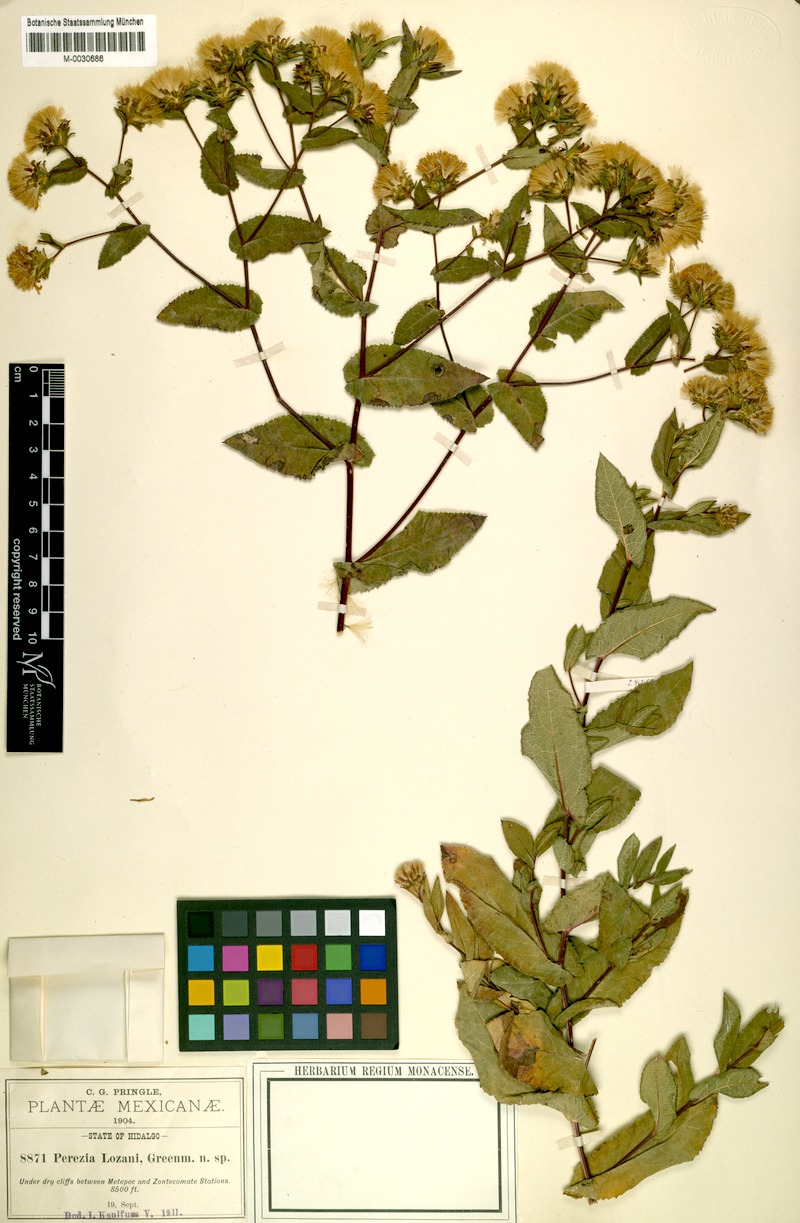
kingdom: Plantae
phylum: Tracheophyta
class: Magnoliopsida
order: Asterales
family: Asteraceae
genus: Acourtia
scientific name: Acourtia lozanoi
